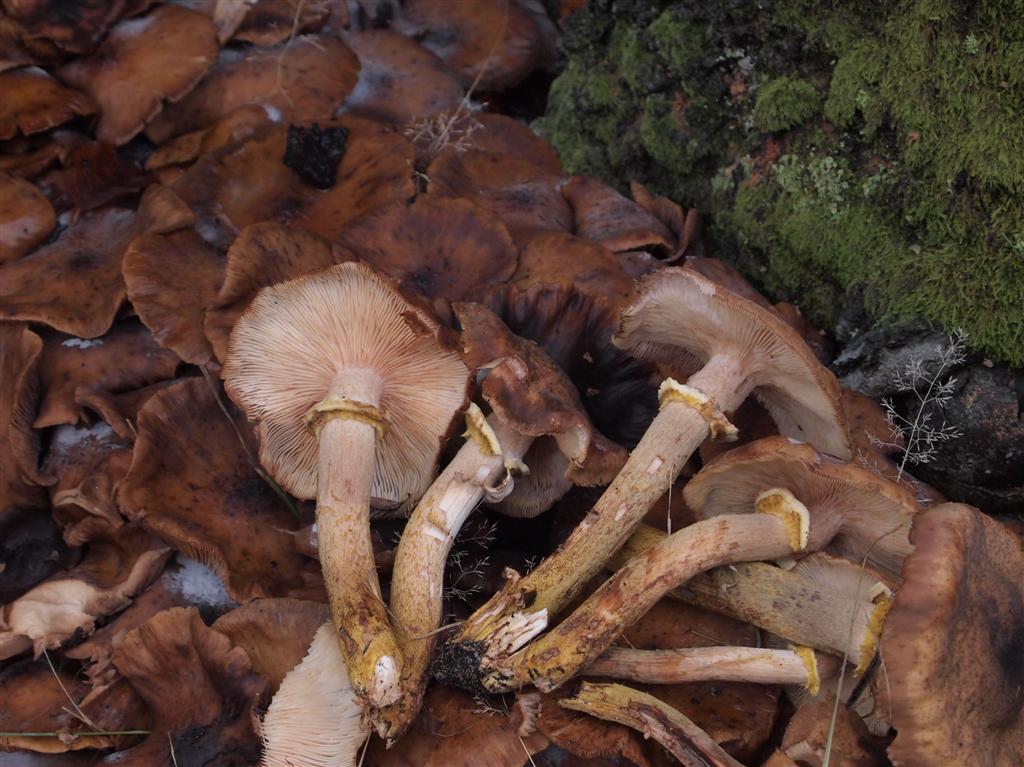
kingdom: Fungi
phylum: Basidiomycota
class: Agaricomycetes
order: Agaricales
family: Physalacriaceae
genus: Armillaria
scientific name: Armillaria lutea
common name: køllestokket honningsvamp
